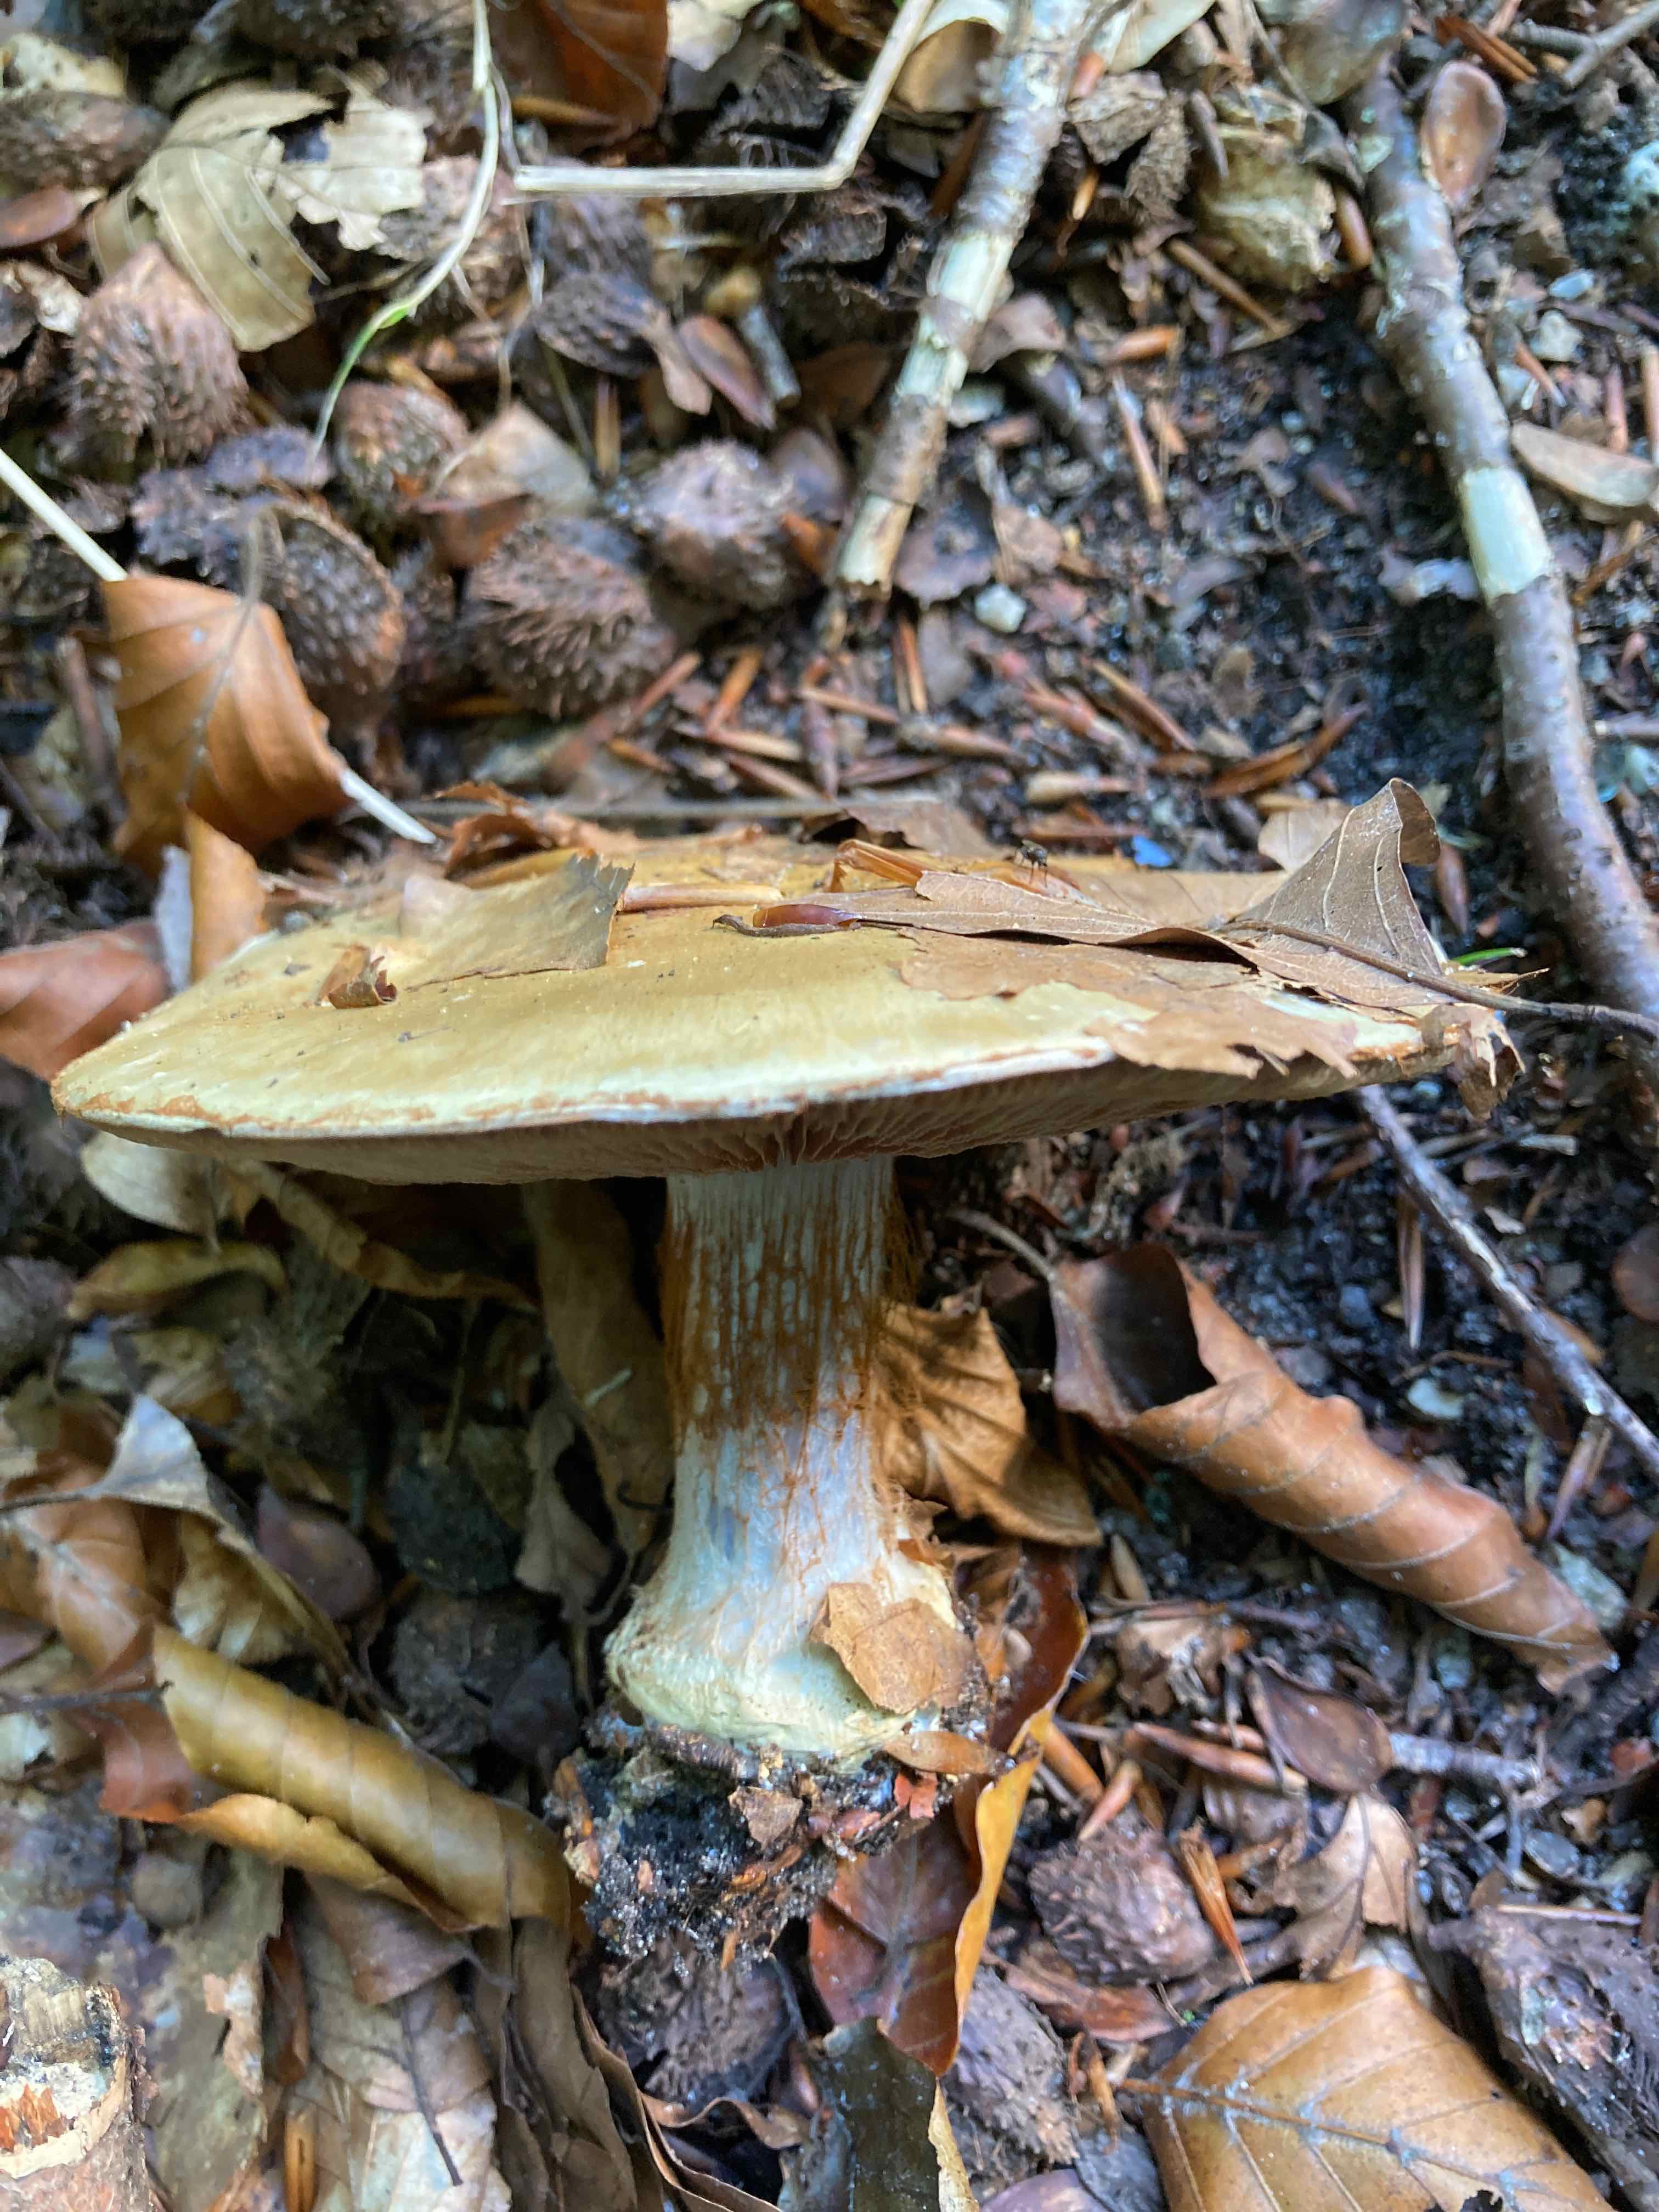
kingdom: Fungi
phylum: Basidiomycota
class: Agaricomycetes
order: Agaricales
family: Cortinariaceae
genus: Cortinarius
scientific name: Cortinarius anserinus
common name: bøge-slørhat
